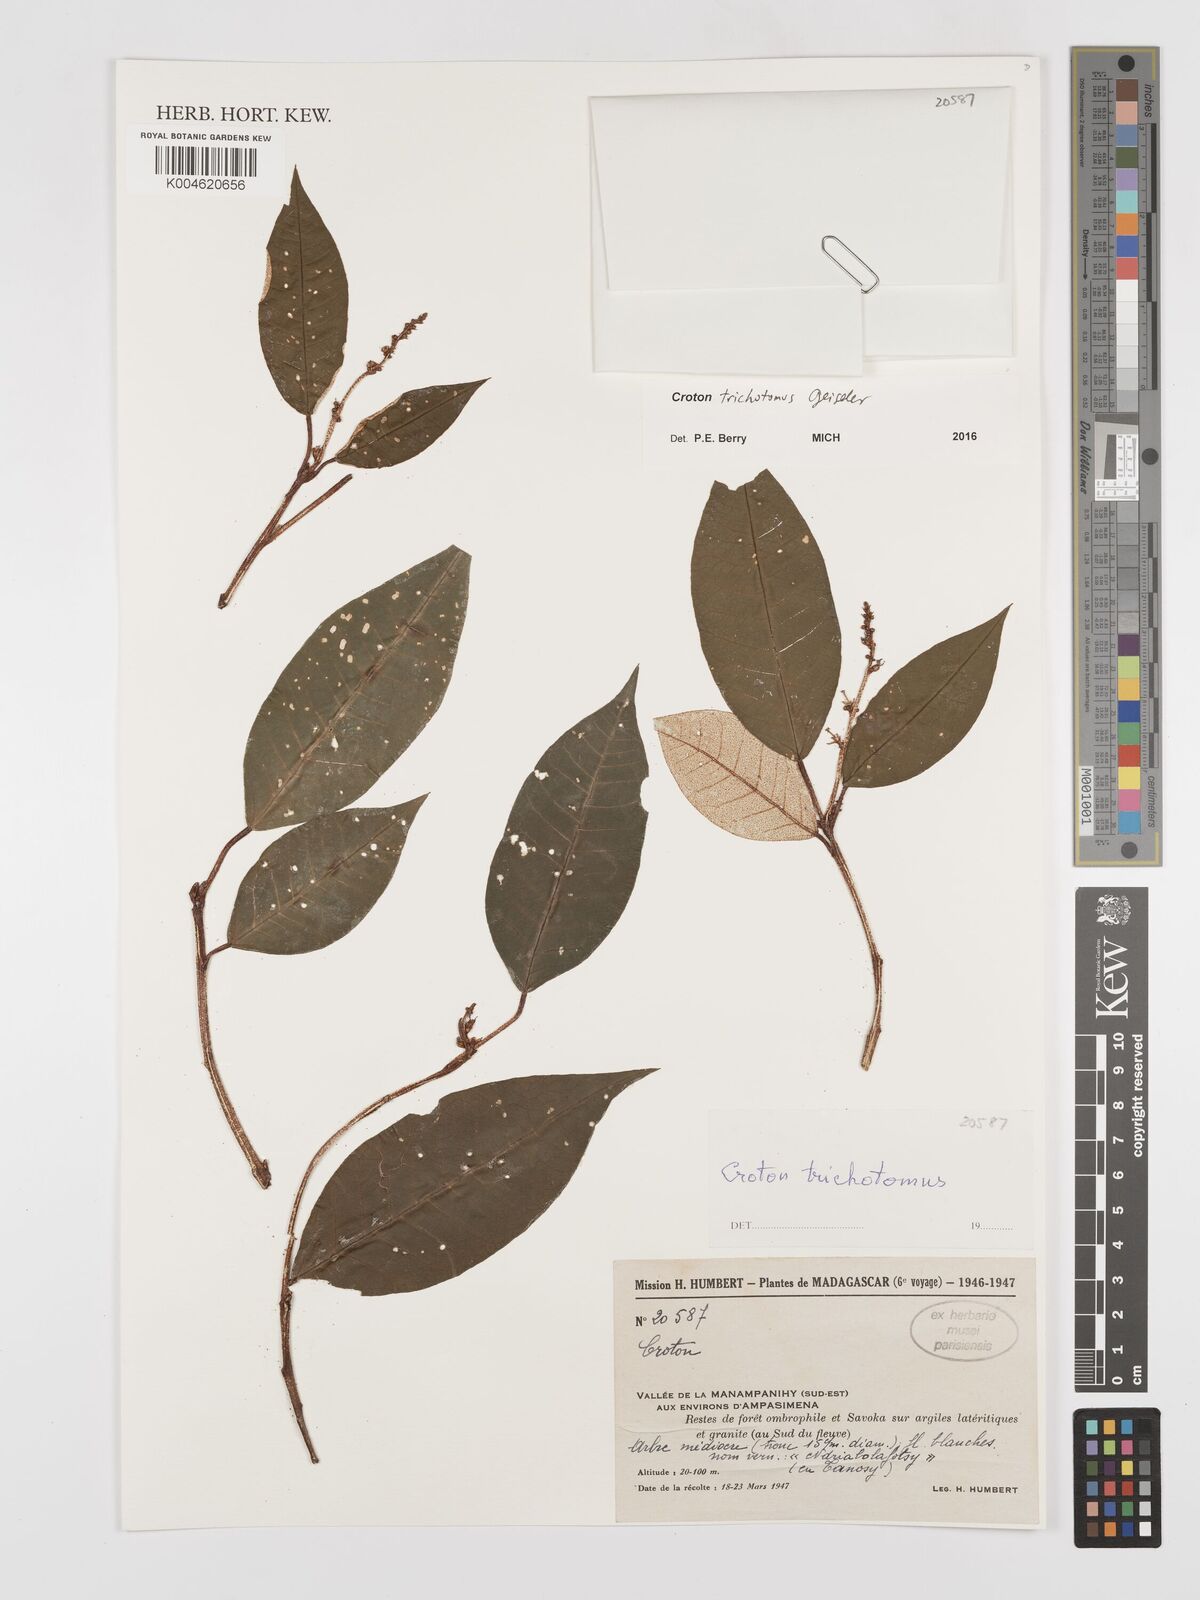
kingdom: Plantae
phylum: Tracheophyta
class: Magnoliopsida
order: Malpighiales
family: Euphorbiaceae
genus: Croton
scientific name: Croton trichotomus
